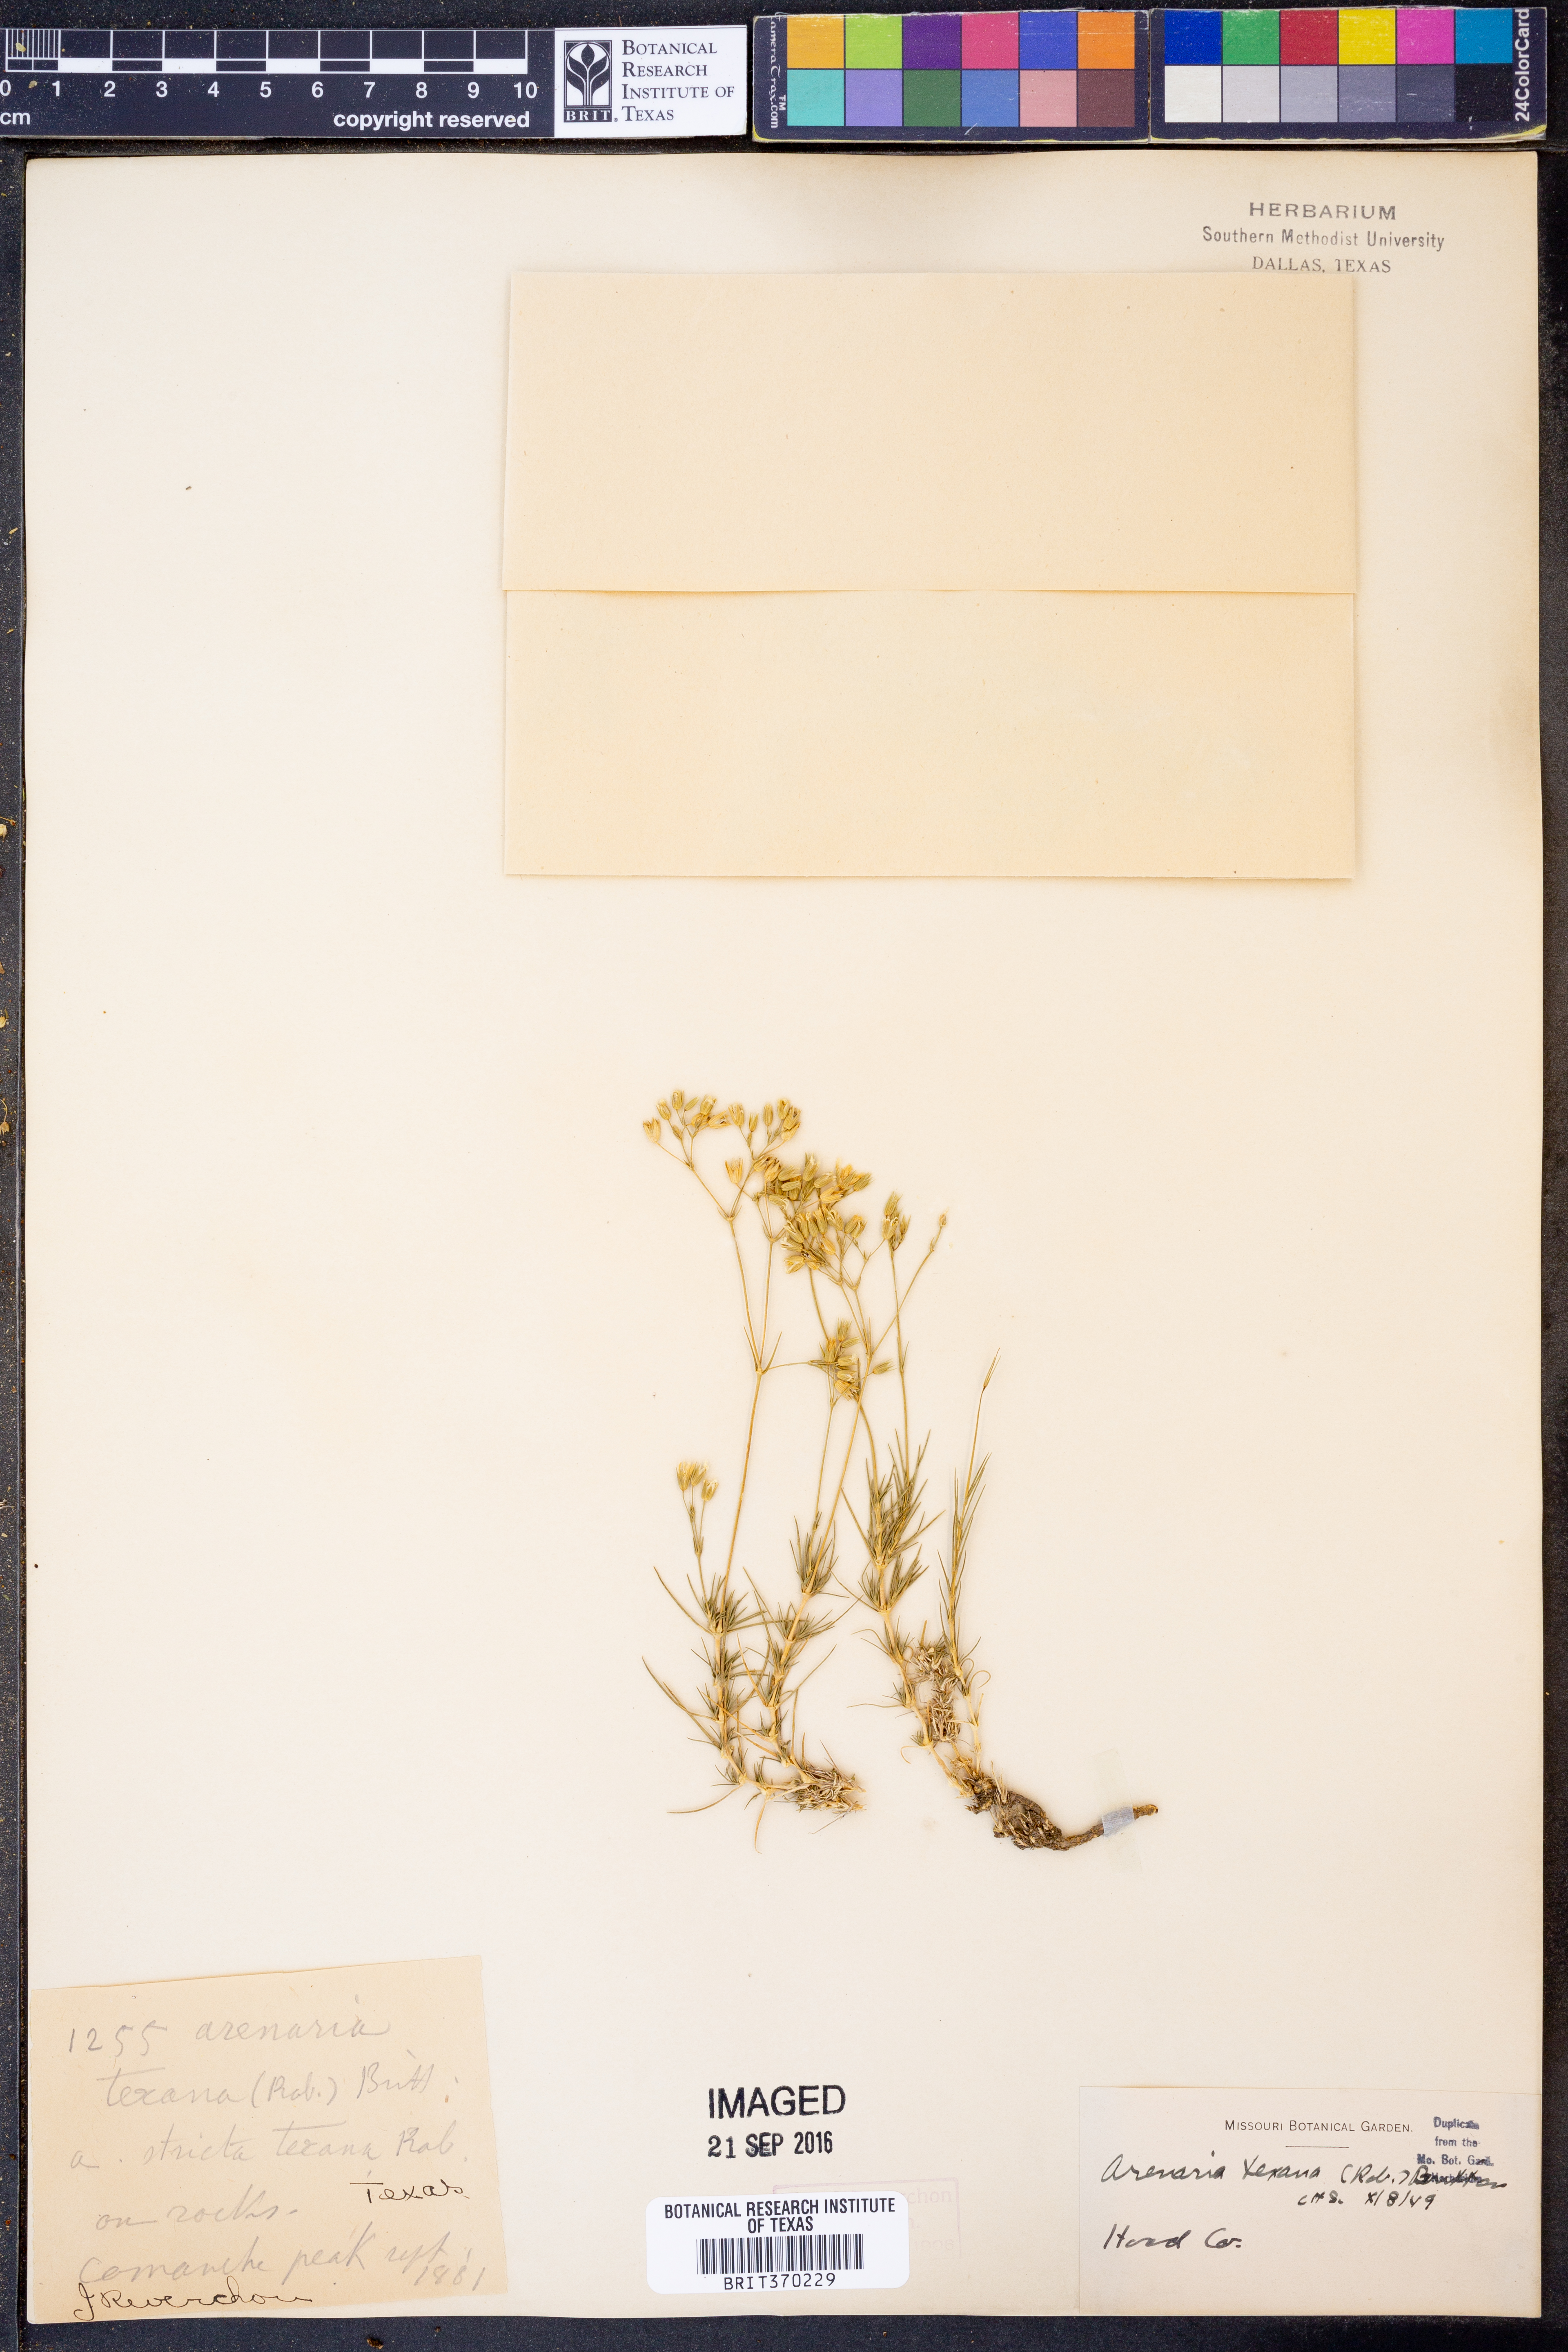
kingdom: Plantae
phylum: Tracheophyta
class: Magnoliopsida
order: Caryophyllales
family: Caryophyllaceae
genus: Sabulina
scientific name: Sabulina texana
